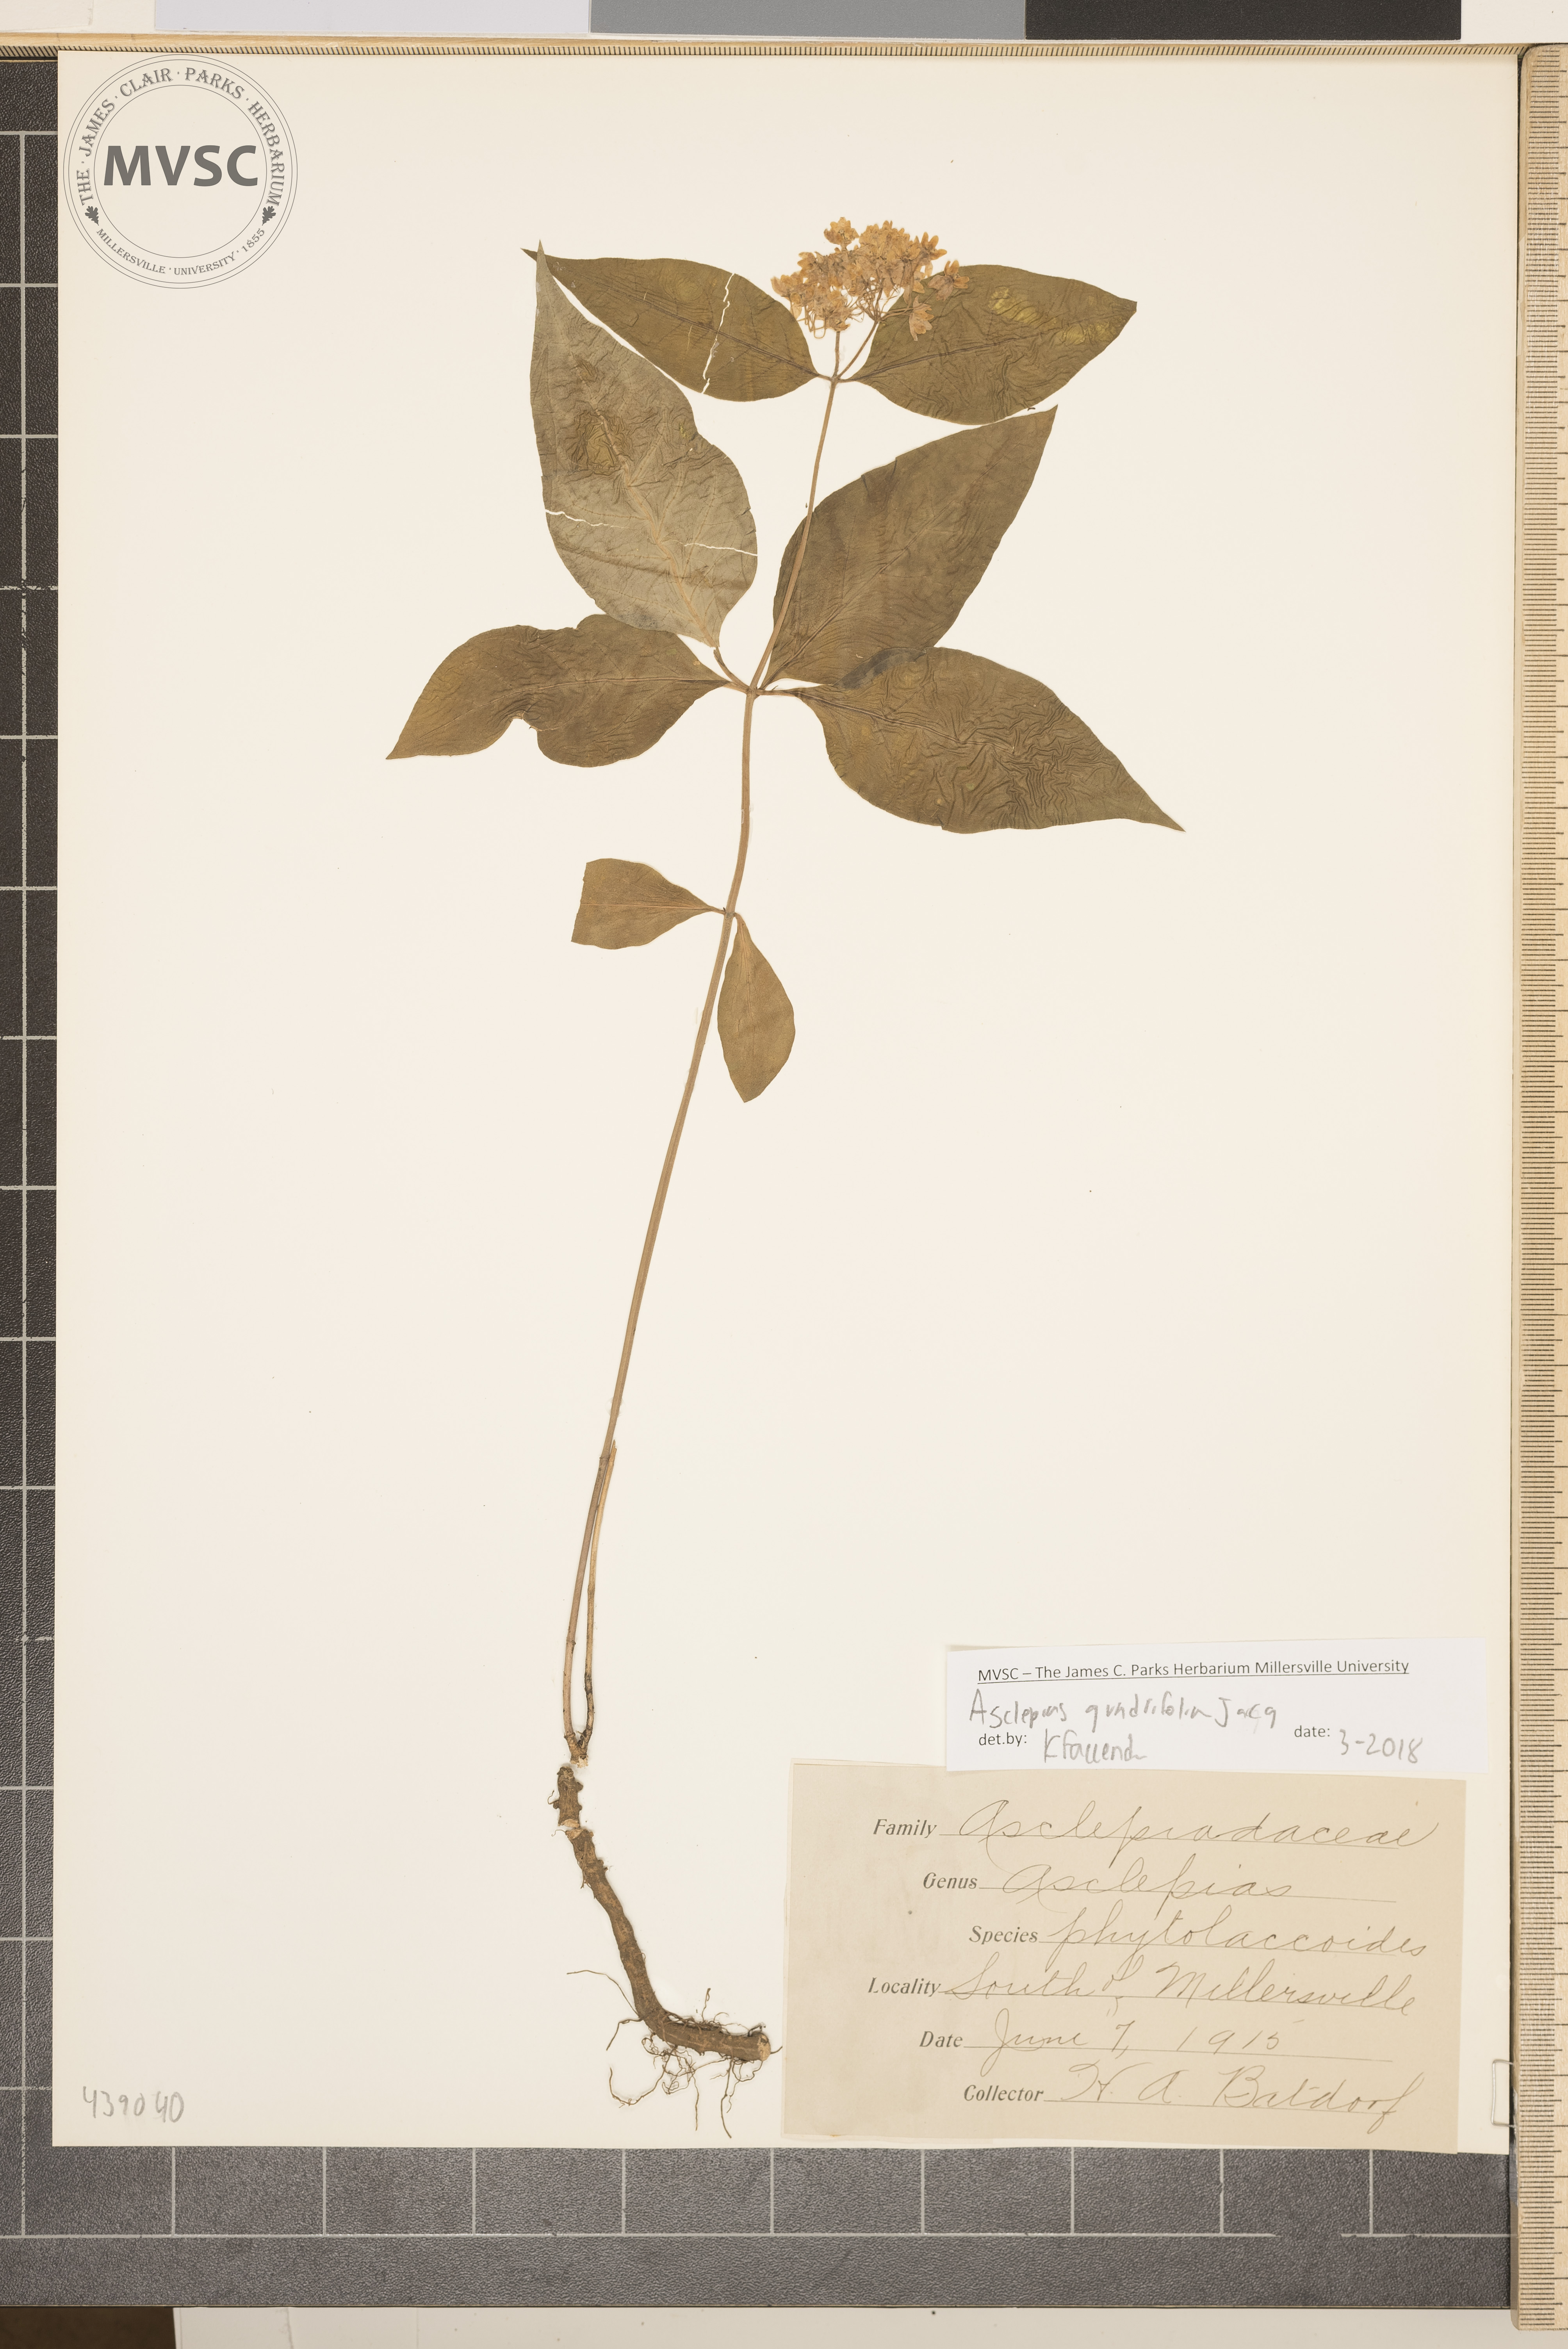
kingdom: Plantae
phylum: Tracheophyta
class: Magnoliopsida
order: Gentianales
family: Apocynaceae
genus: Asclepias
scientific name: Asclepias quadrifolia
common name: Whorled milkweed
